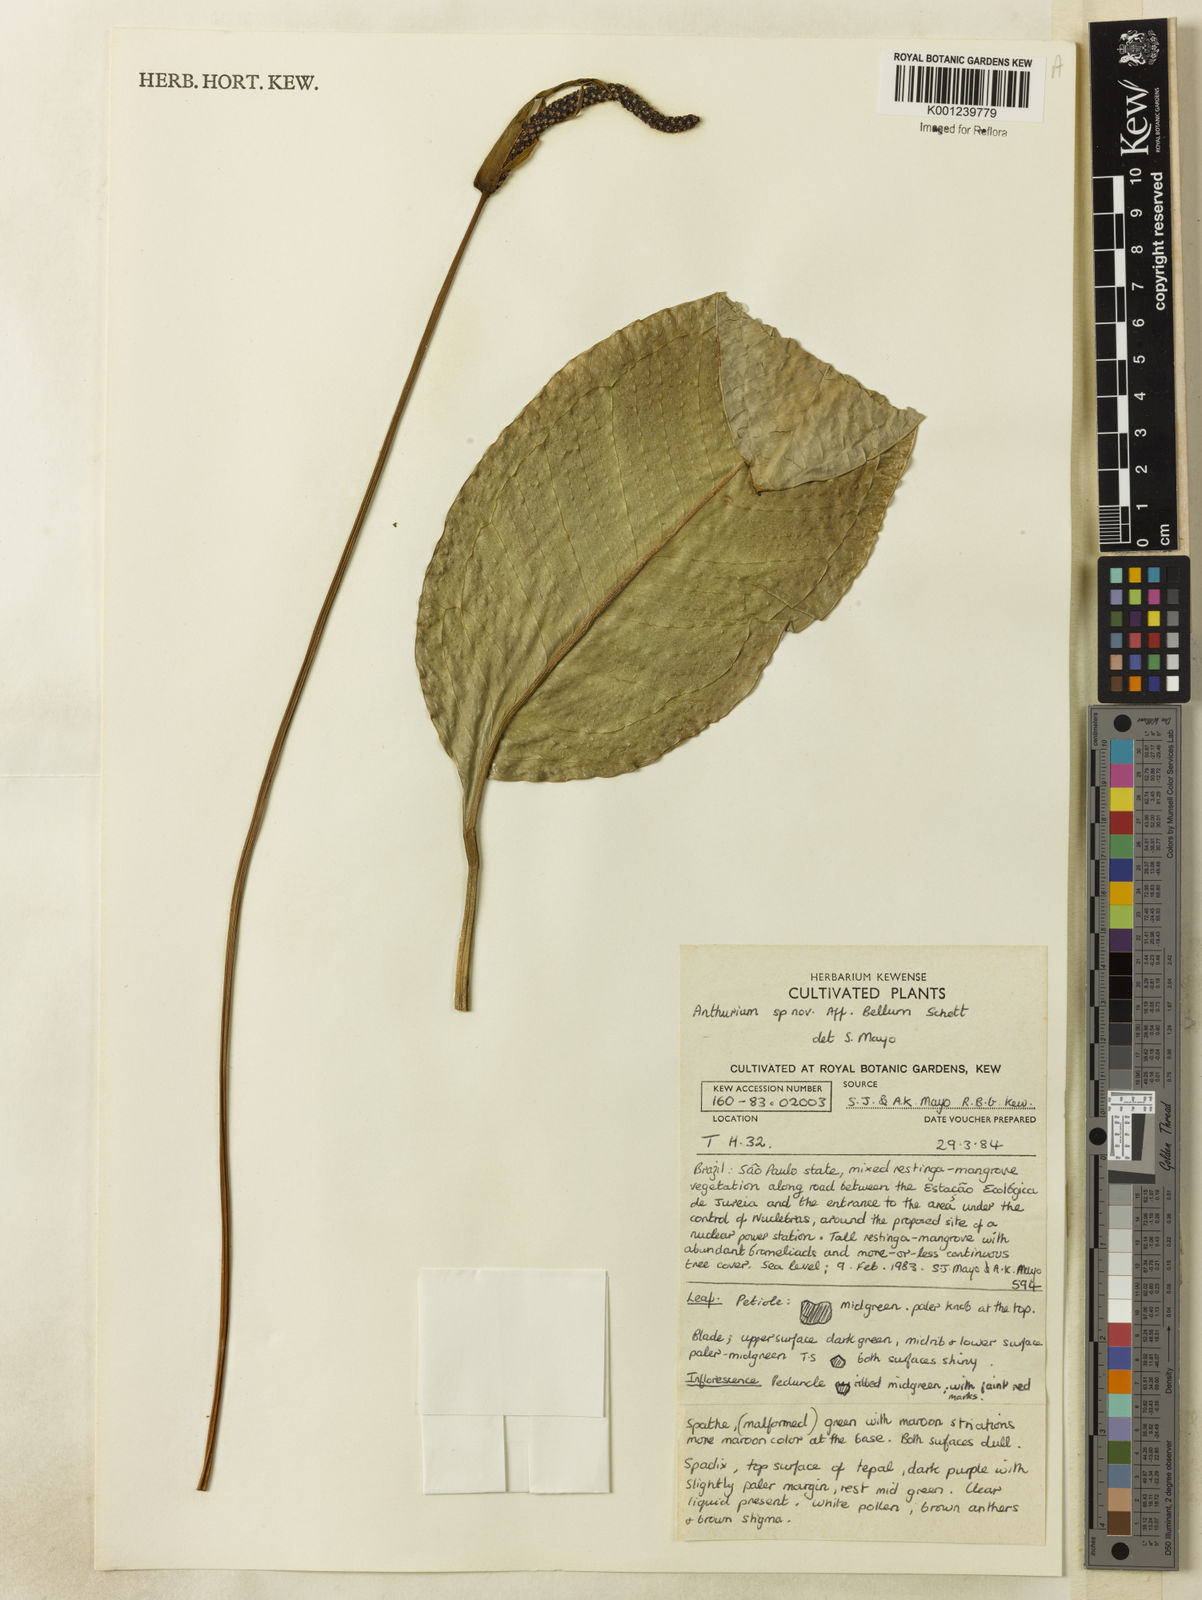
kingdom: Plantae
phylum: Tracheophyta
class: Liliopsida
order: Alismatales
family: Araceae
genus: Anthurium
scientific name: Anthurium
